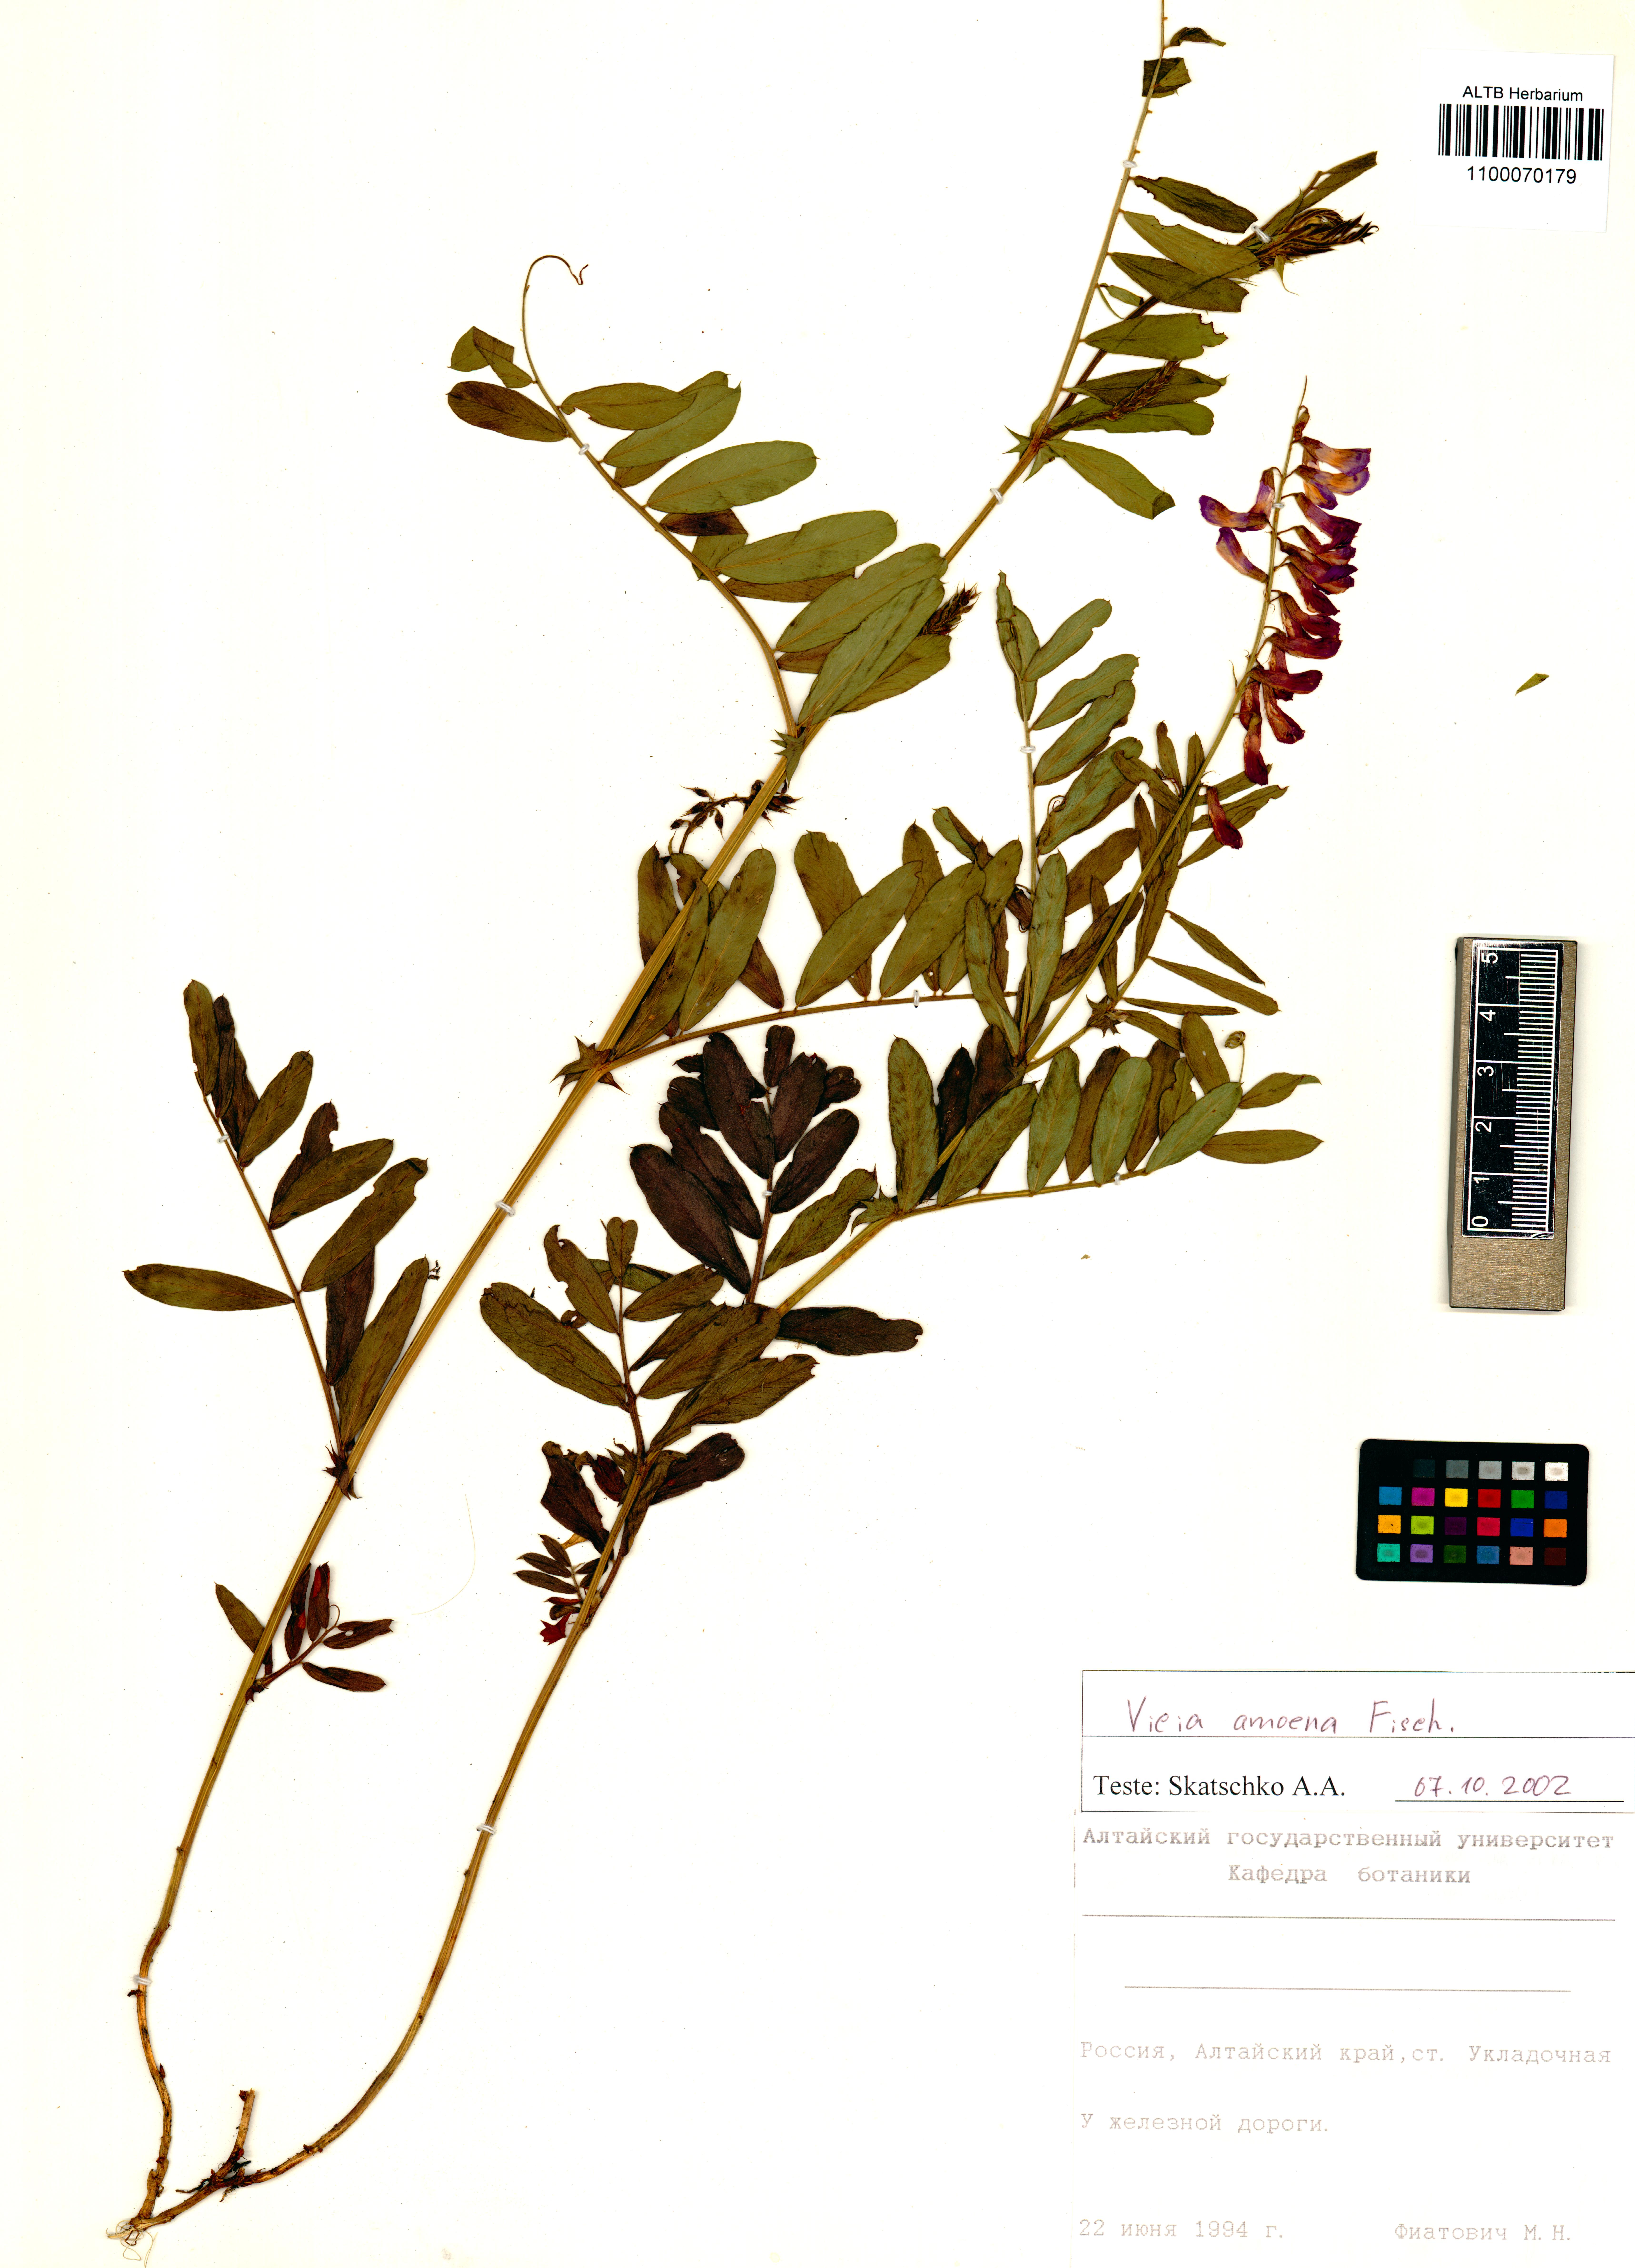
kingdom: Plantae
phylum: Tracheophyta
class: Magnoliopsida
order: Fabales
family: Fabaceae
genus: Vicia
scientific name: Vicia amoena
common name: Cheder ebs
